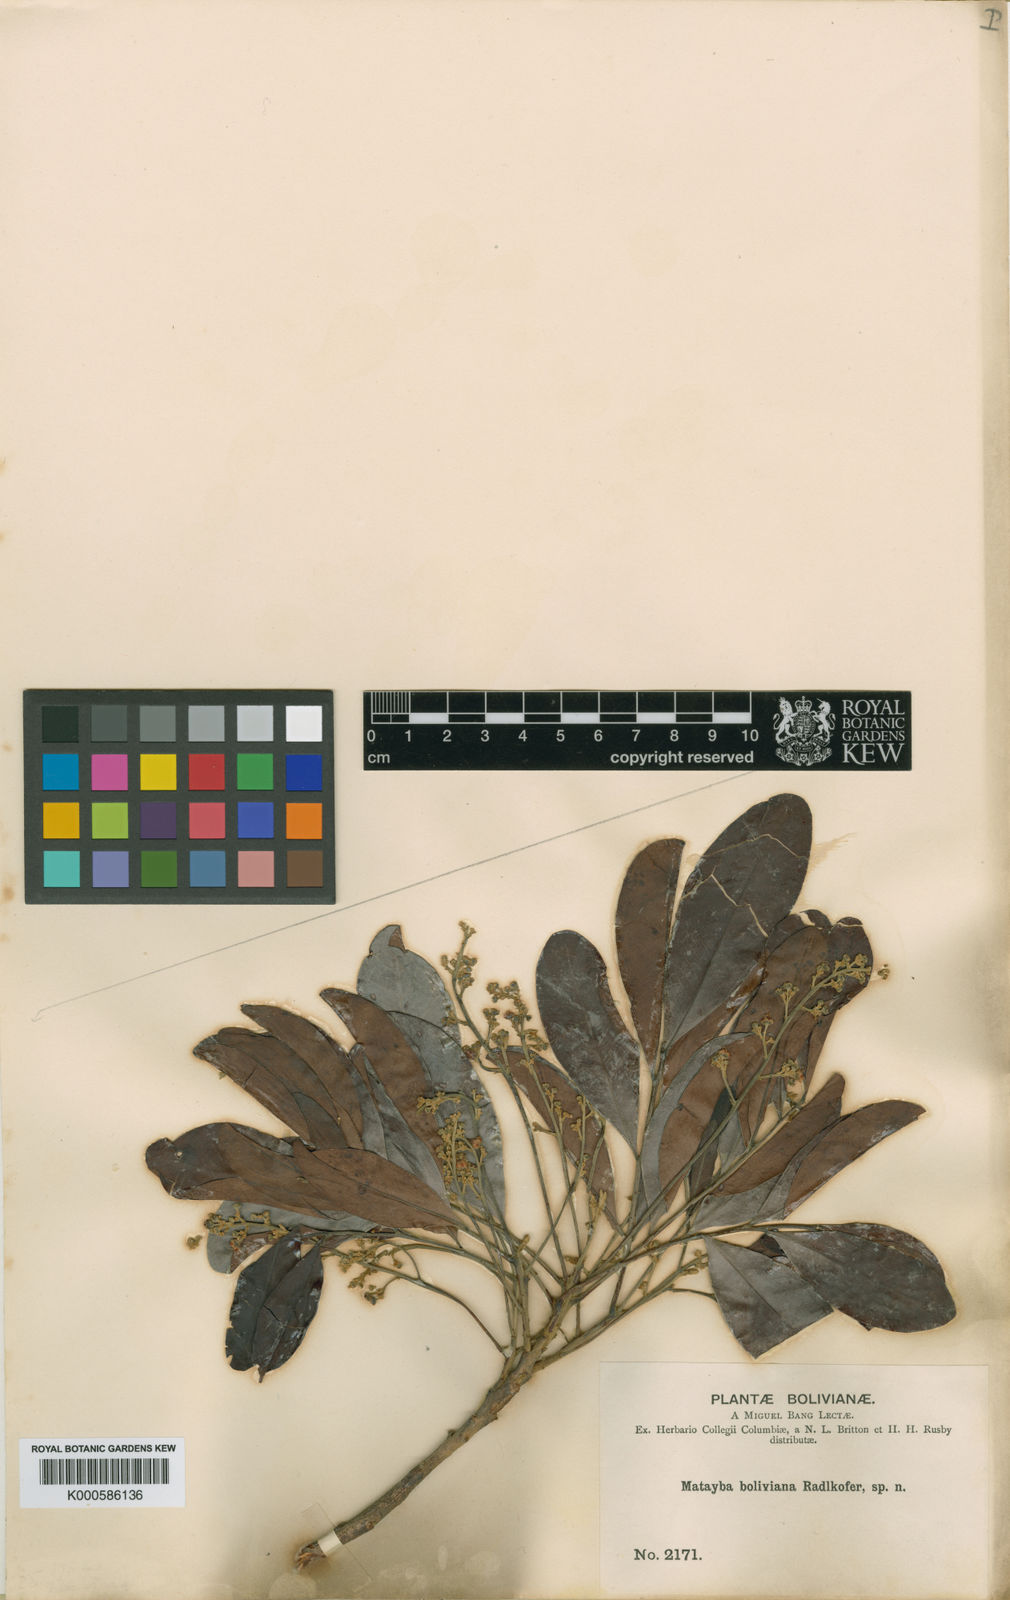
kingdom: Plantae
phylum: Tracheophyta
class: Magnoliopsida
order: Sapindales
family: Sapindaceae
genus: Matayba
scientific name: Matayba boliviana
